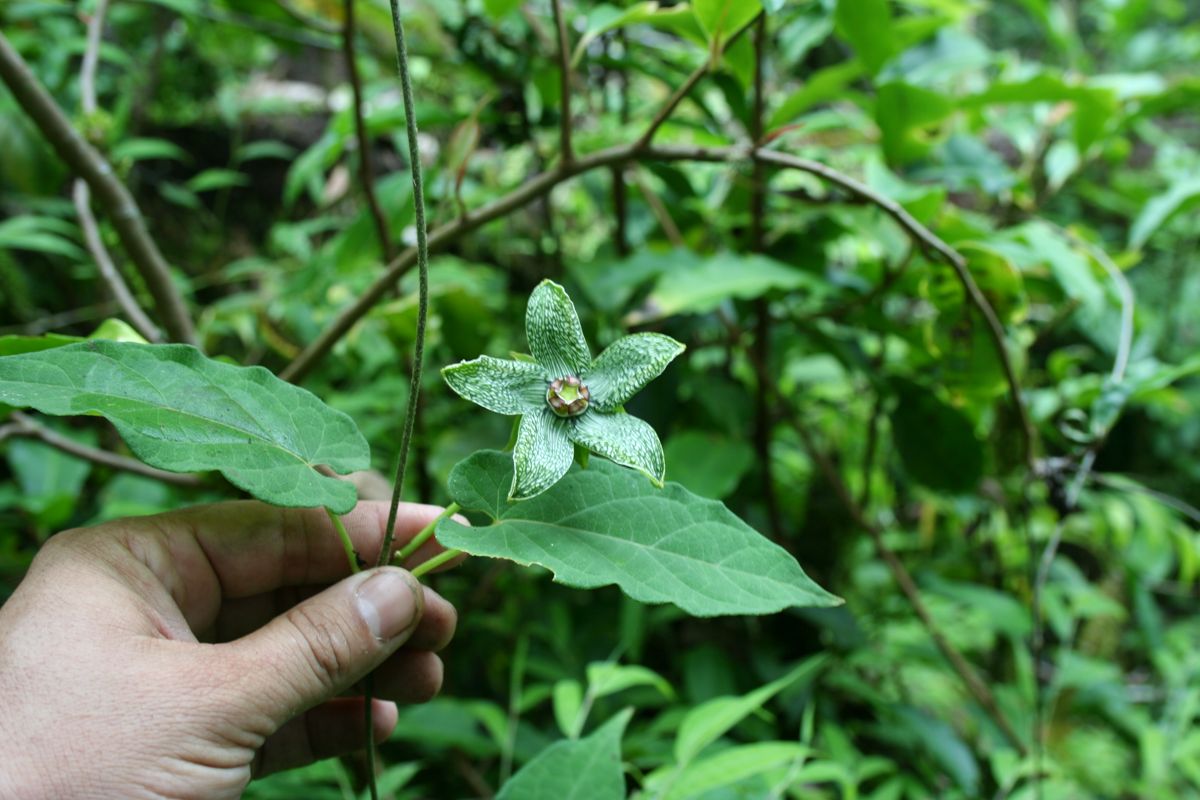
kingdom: Plantae
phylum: Tracheophyta
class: Magnoliopsida
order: Gentianales
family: Apocynaceae
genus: Gonolobus
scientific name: Gonolobus incerianus
